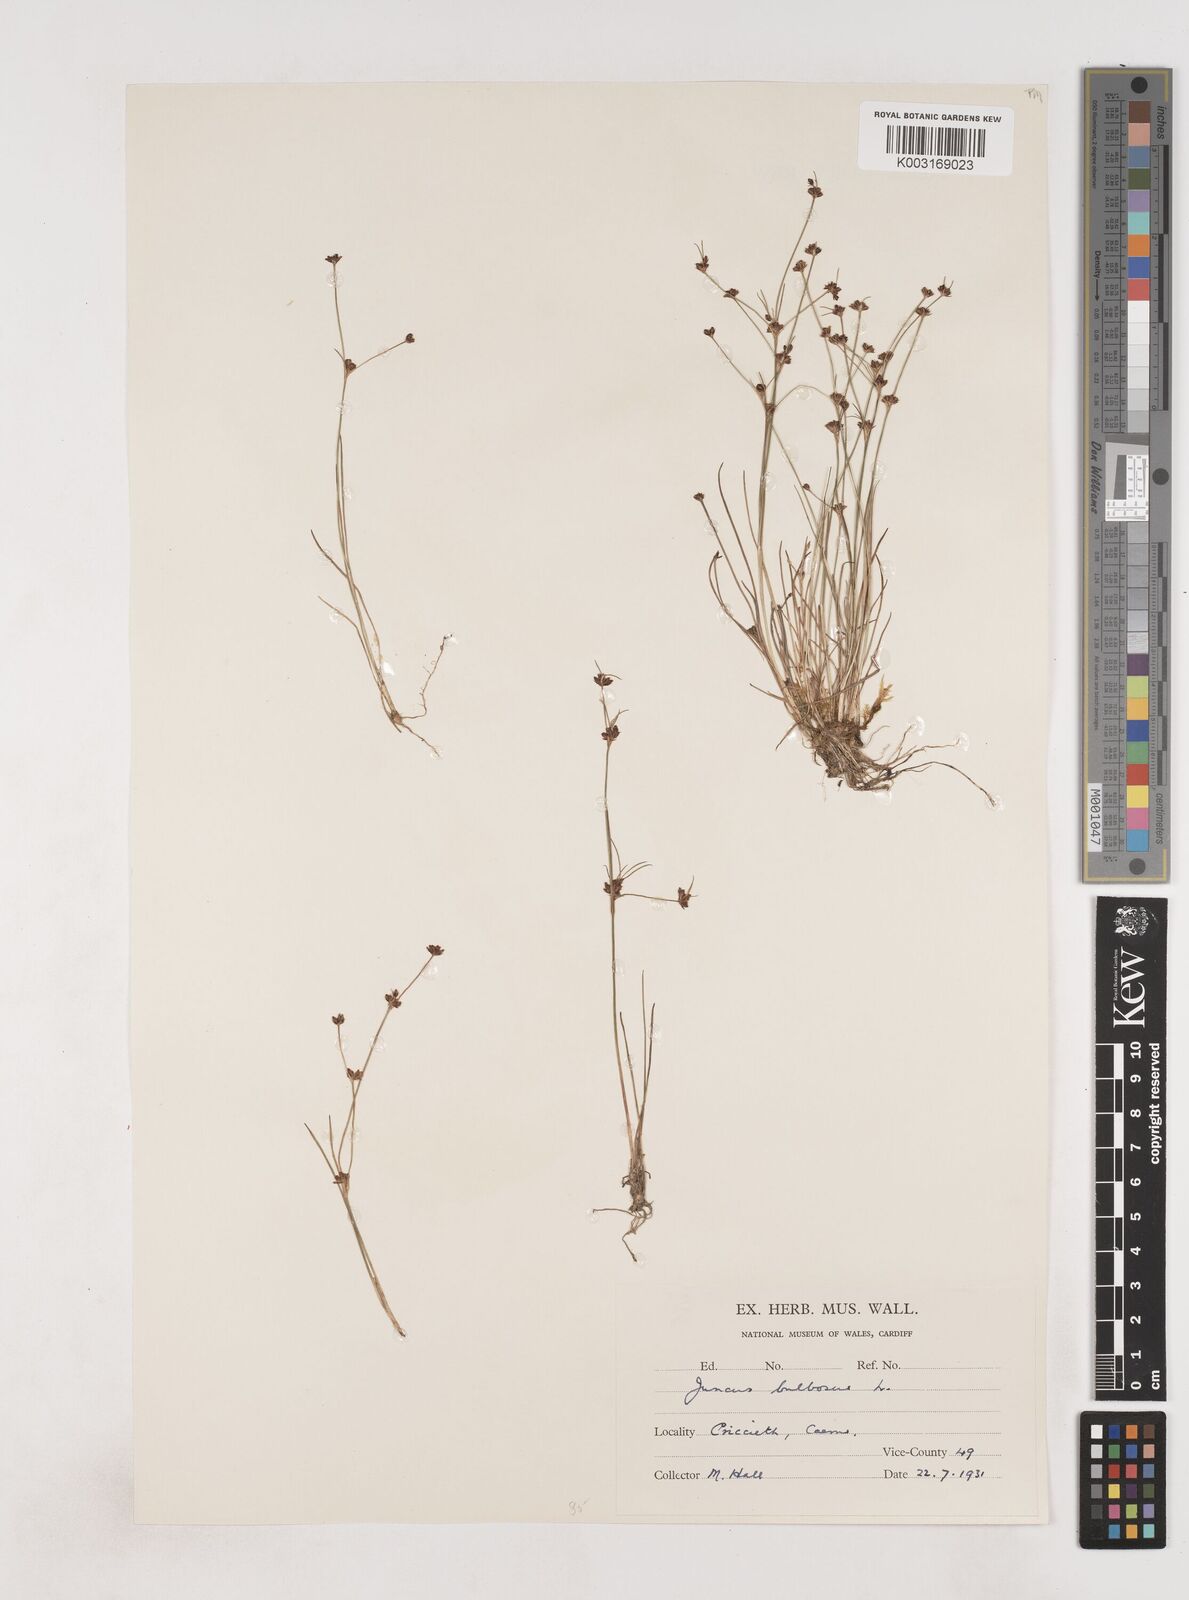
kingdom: Plantae
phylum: Tracheophyta
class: Liliopsida
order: Poales
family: Juncaceae
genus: Juncus
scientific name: Juncus bulbosus
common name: Bulbous rush
